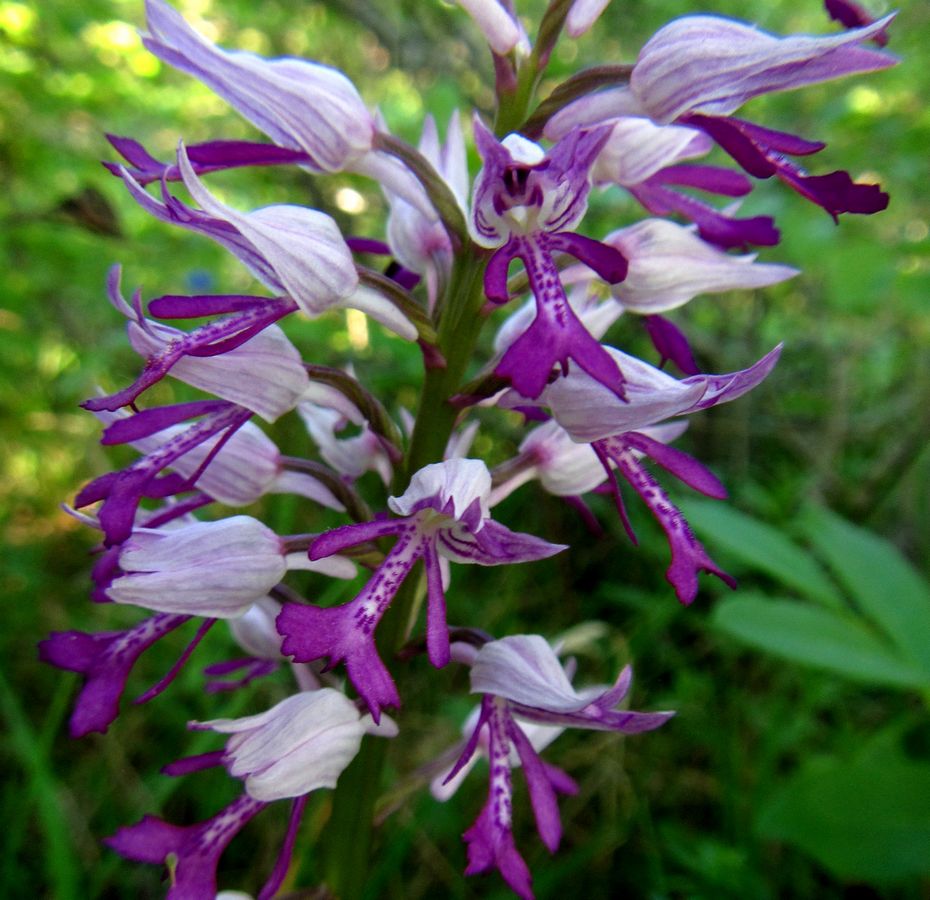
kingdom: Plantae
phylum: Tracheophyta
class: Liliopsida
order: Asparagales
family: Orchidaceae
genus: Orchis
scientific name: Orchis militaris
